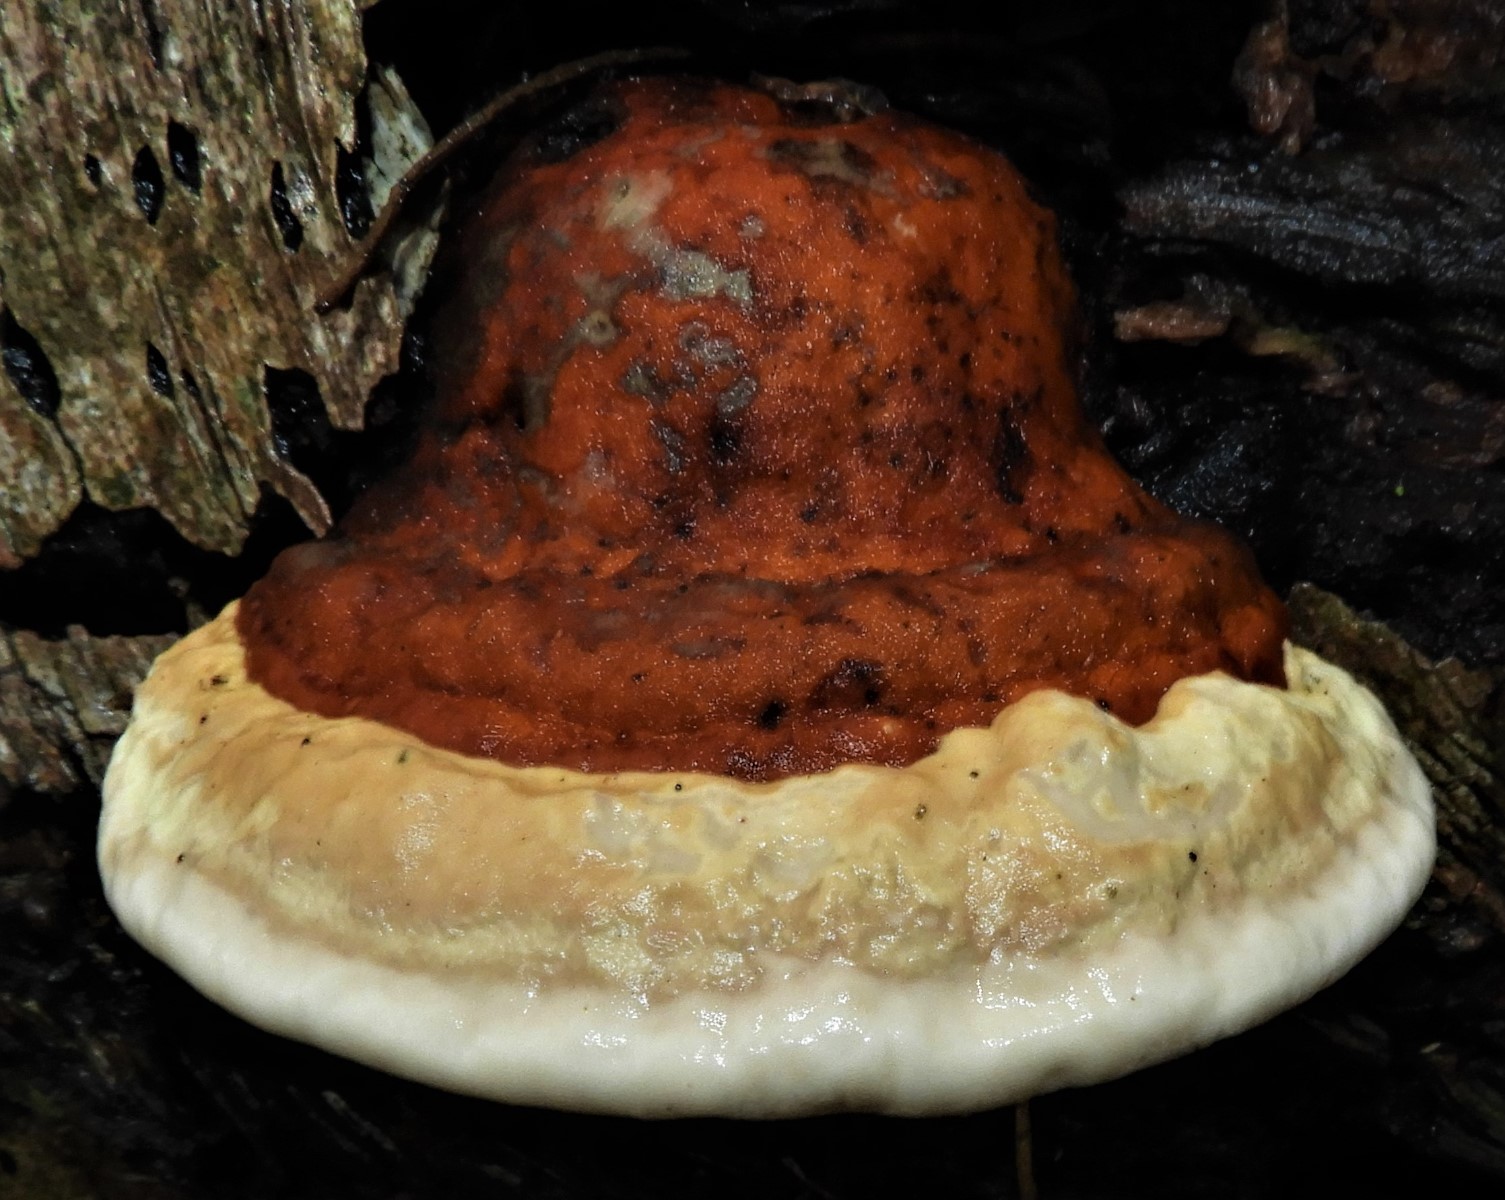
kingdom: Fungi
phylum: Basidiomycota
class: Agaricomycetes
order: Polyporales
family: Fomitopsidaceae
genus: Fomitopsis
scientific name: Fomitopsis pinicola
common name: randbæltet hovporesvamp
